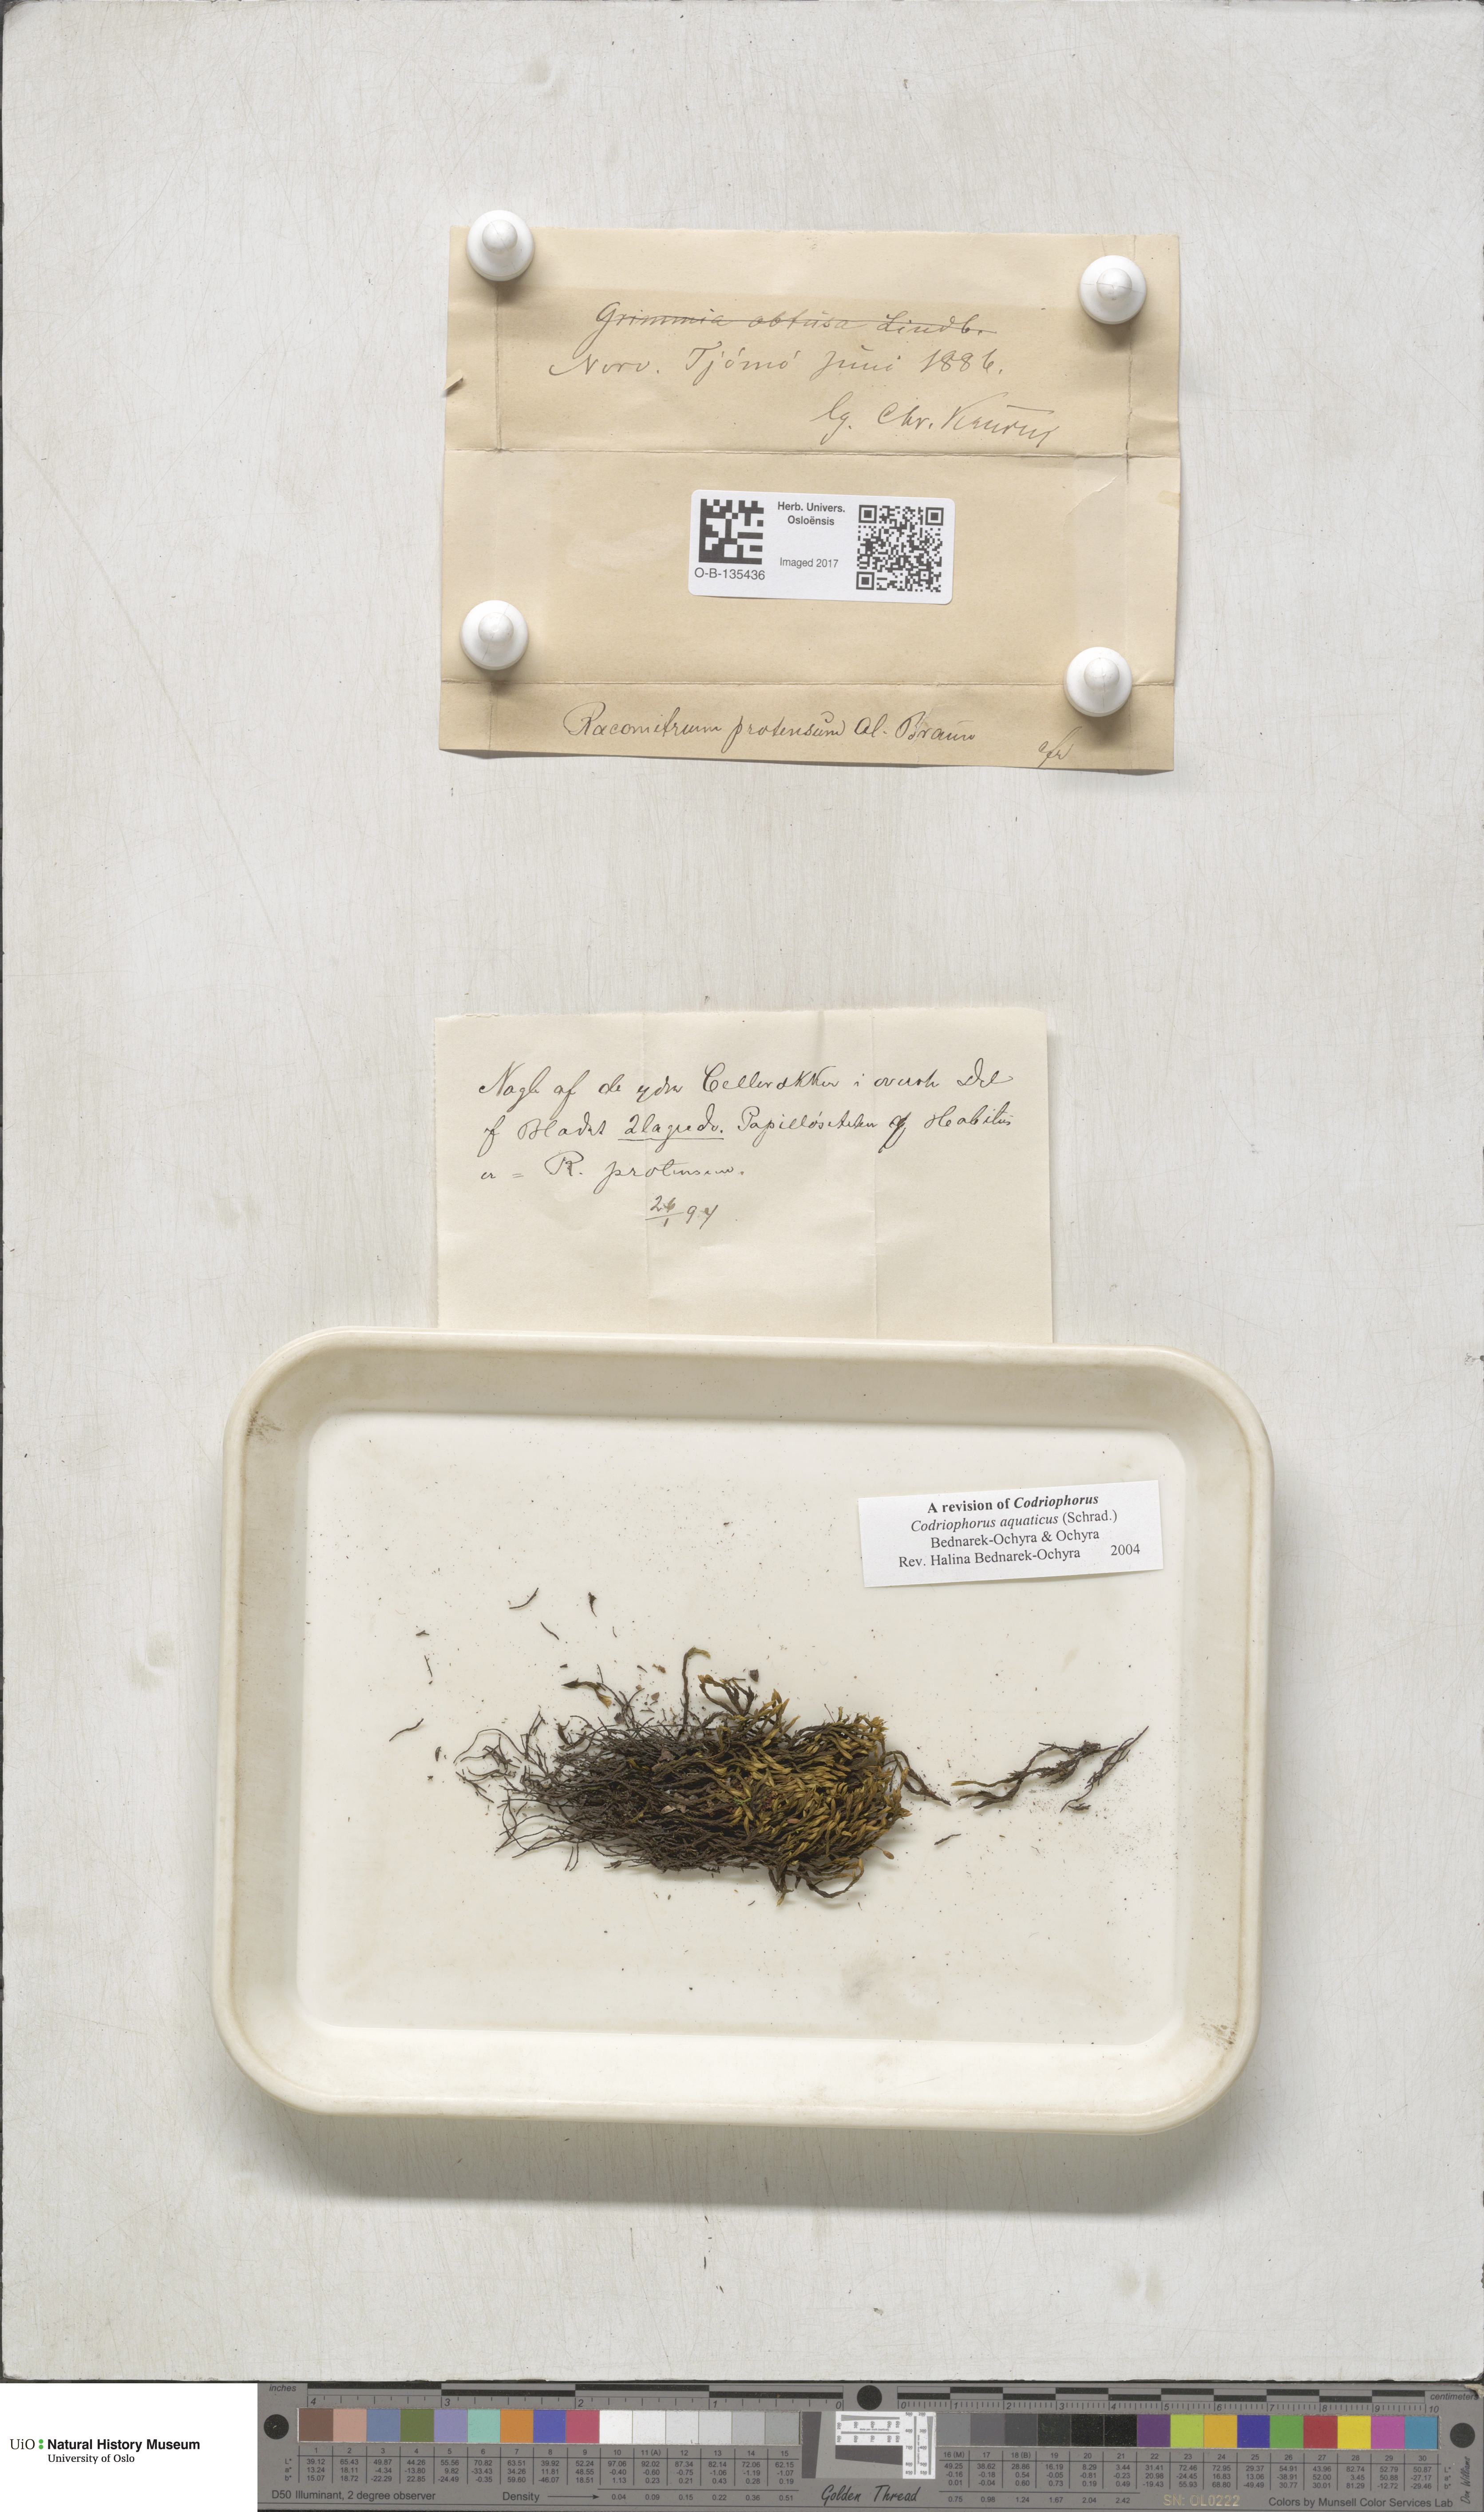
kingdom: Plantae
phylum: Bryophyta
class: Bryopsida
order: Grimmiales
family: Grimmiaceae
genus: Codriophorus
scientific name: Codriophorus aquaticus
